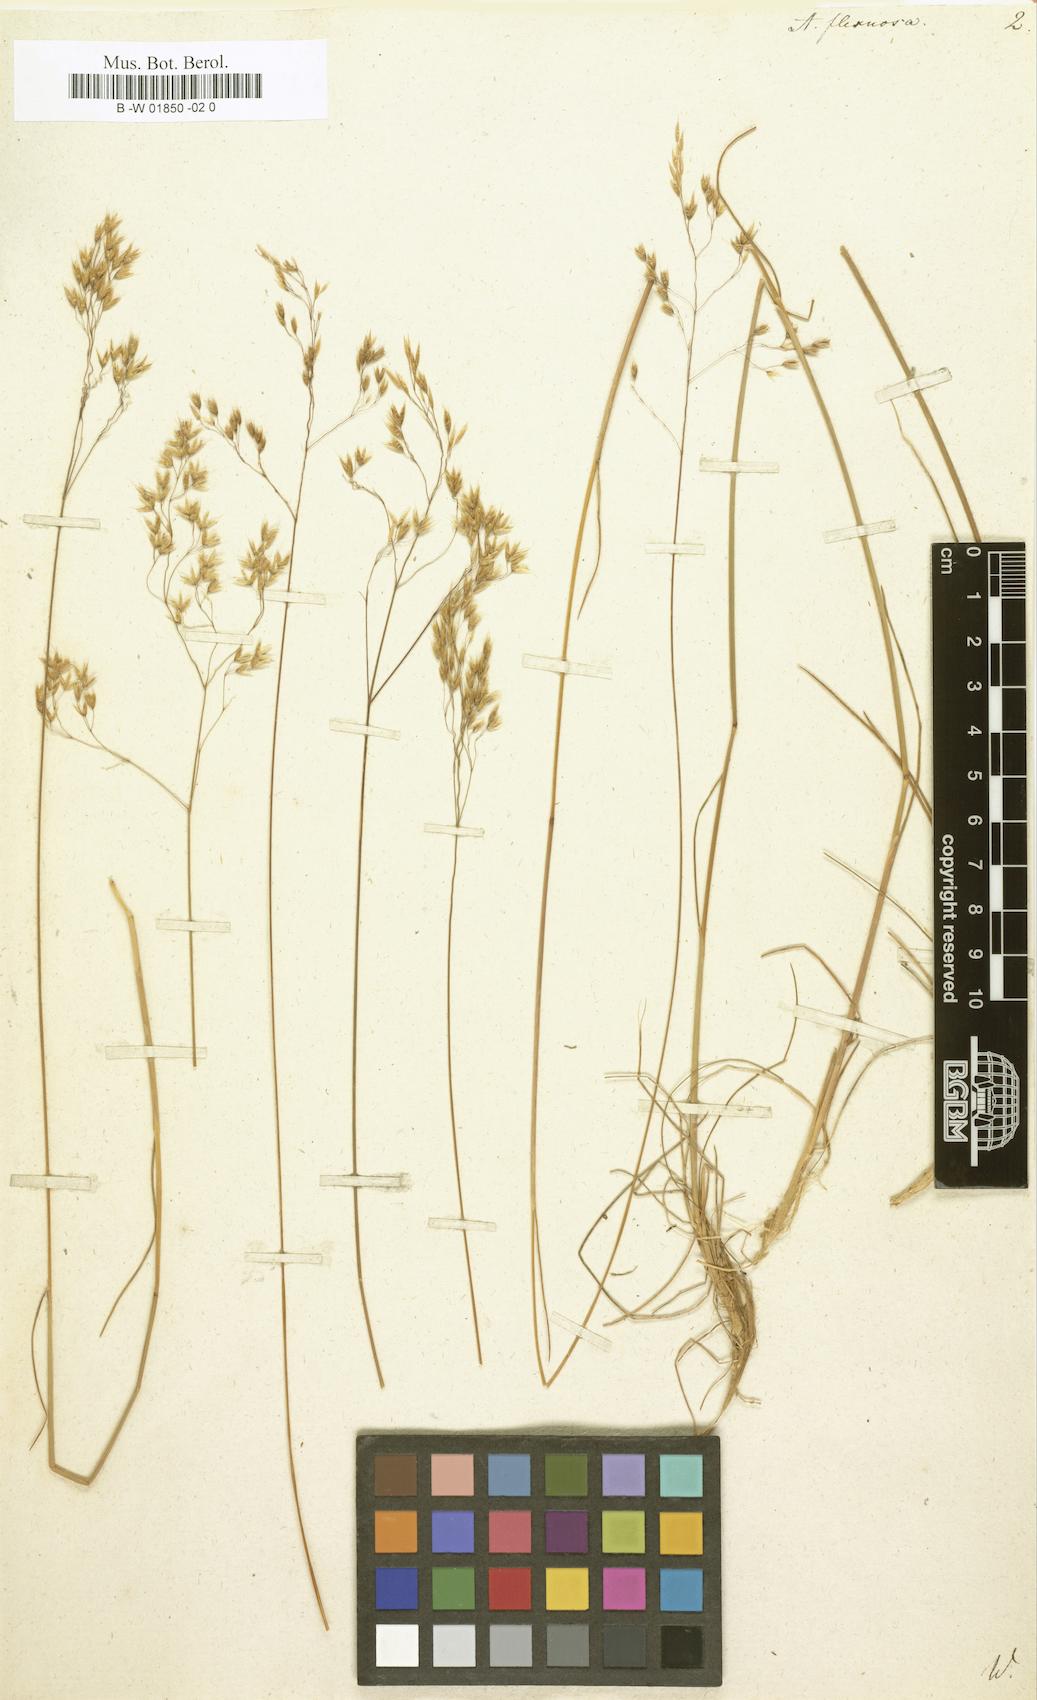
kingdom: Plantae
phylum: Tracheophyta
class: Liliopsida
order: Poales
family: Poaceae
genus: Avenella
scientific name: Avenella flexuosa
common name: Wavy hairgrass
